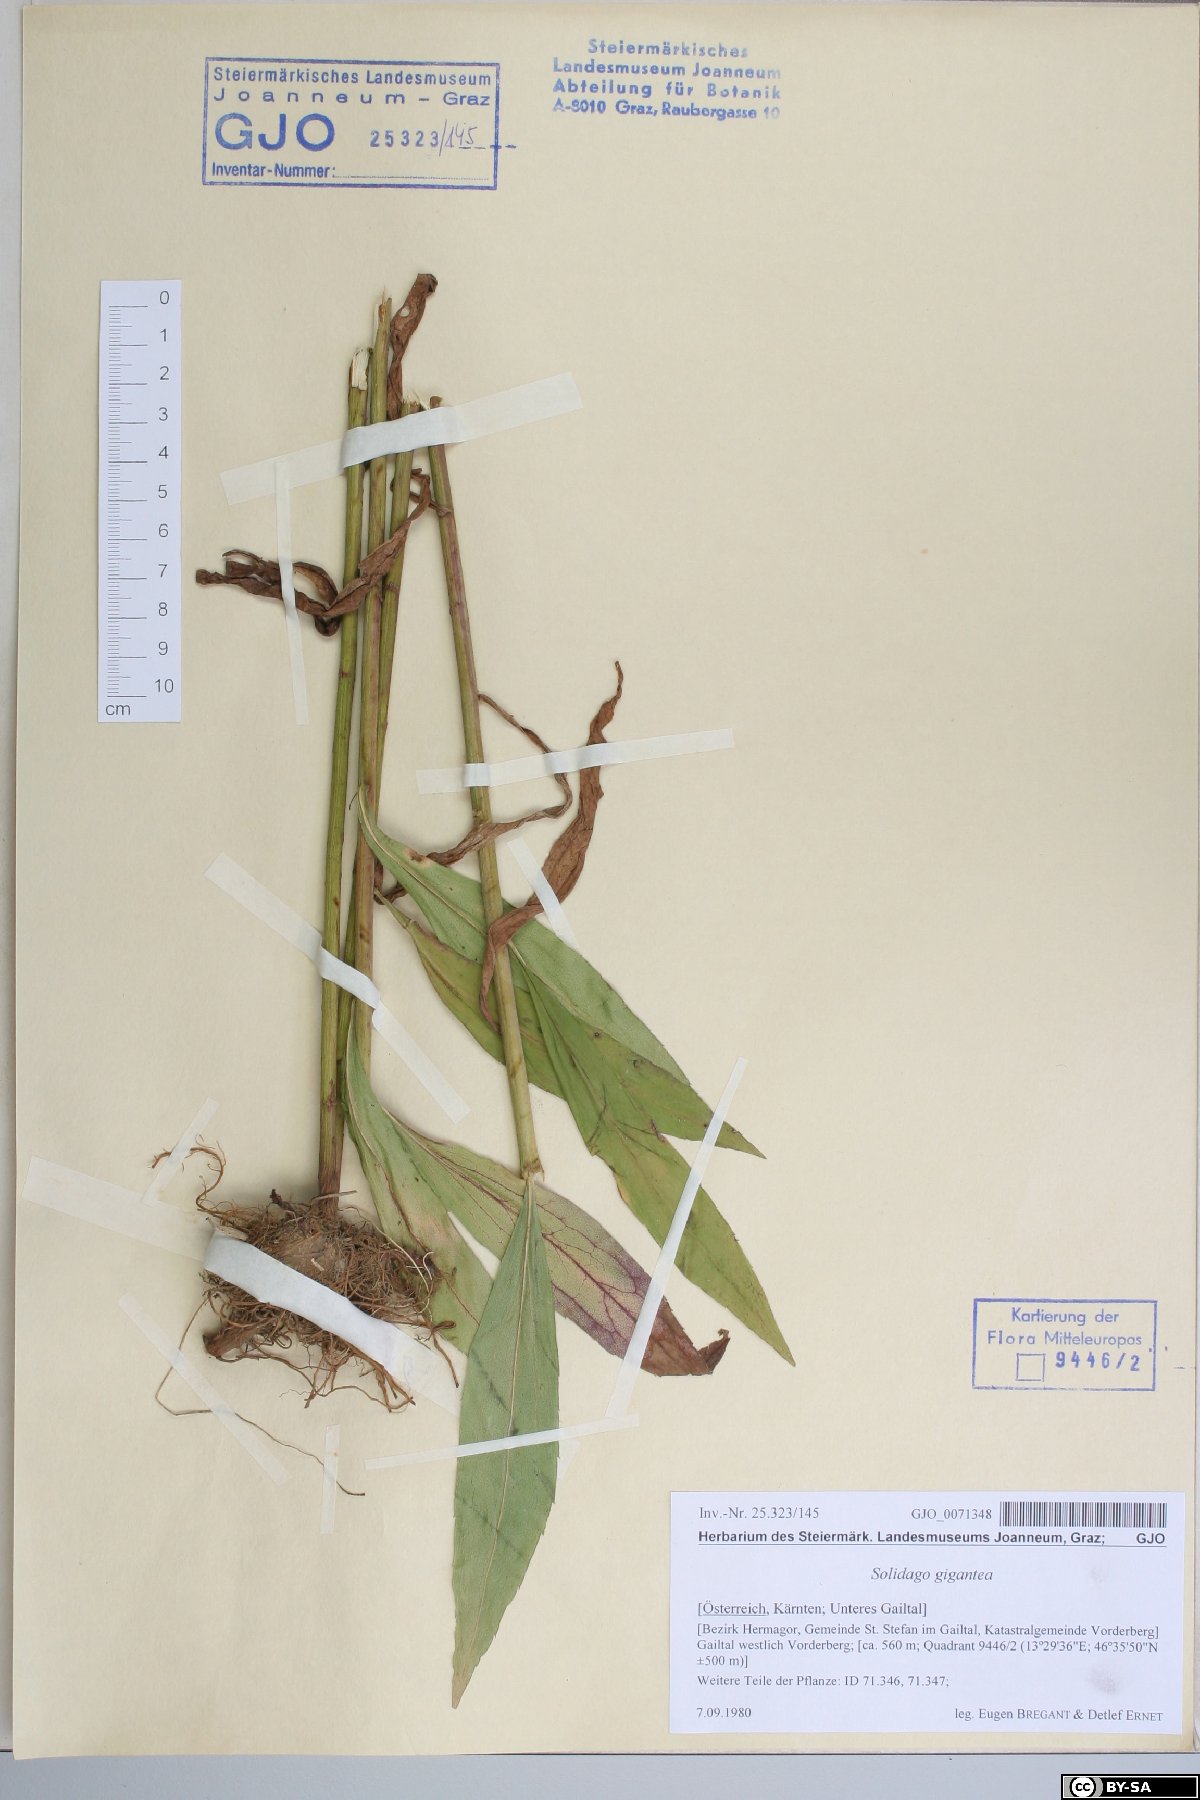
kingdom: Plantae
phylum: Tracheophyta
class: Magnoliopsida
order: Asterales
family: Asteraceae
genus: Solidago
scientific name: Solidago gigantea
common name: Giant goldenrod
